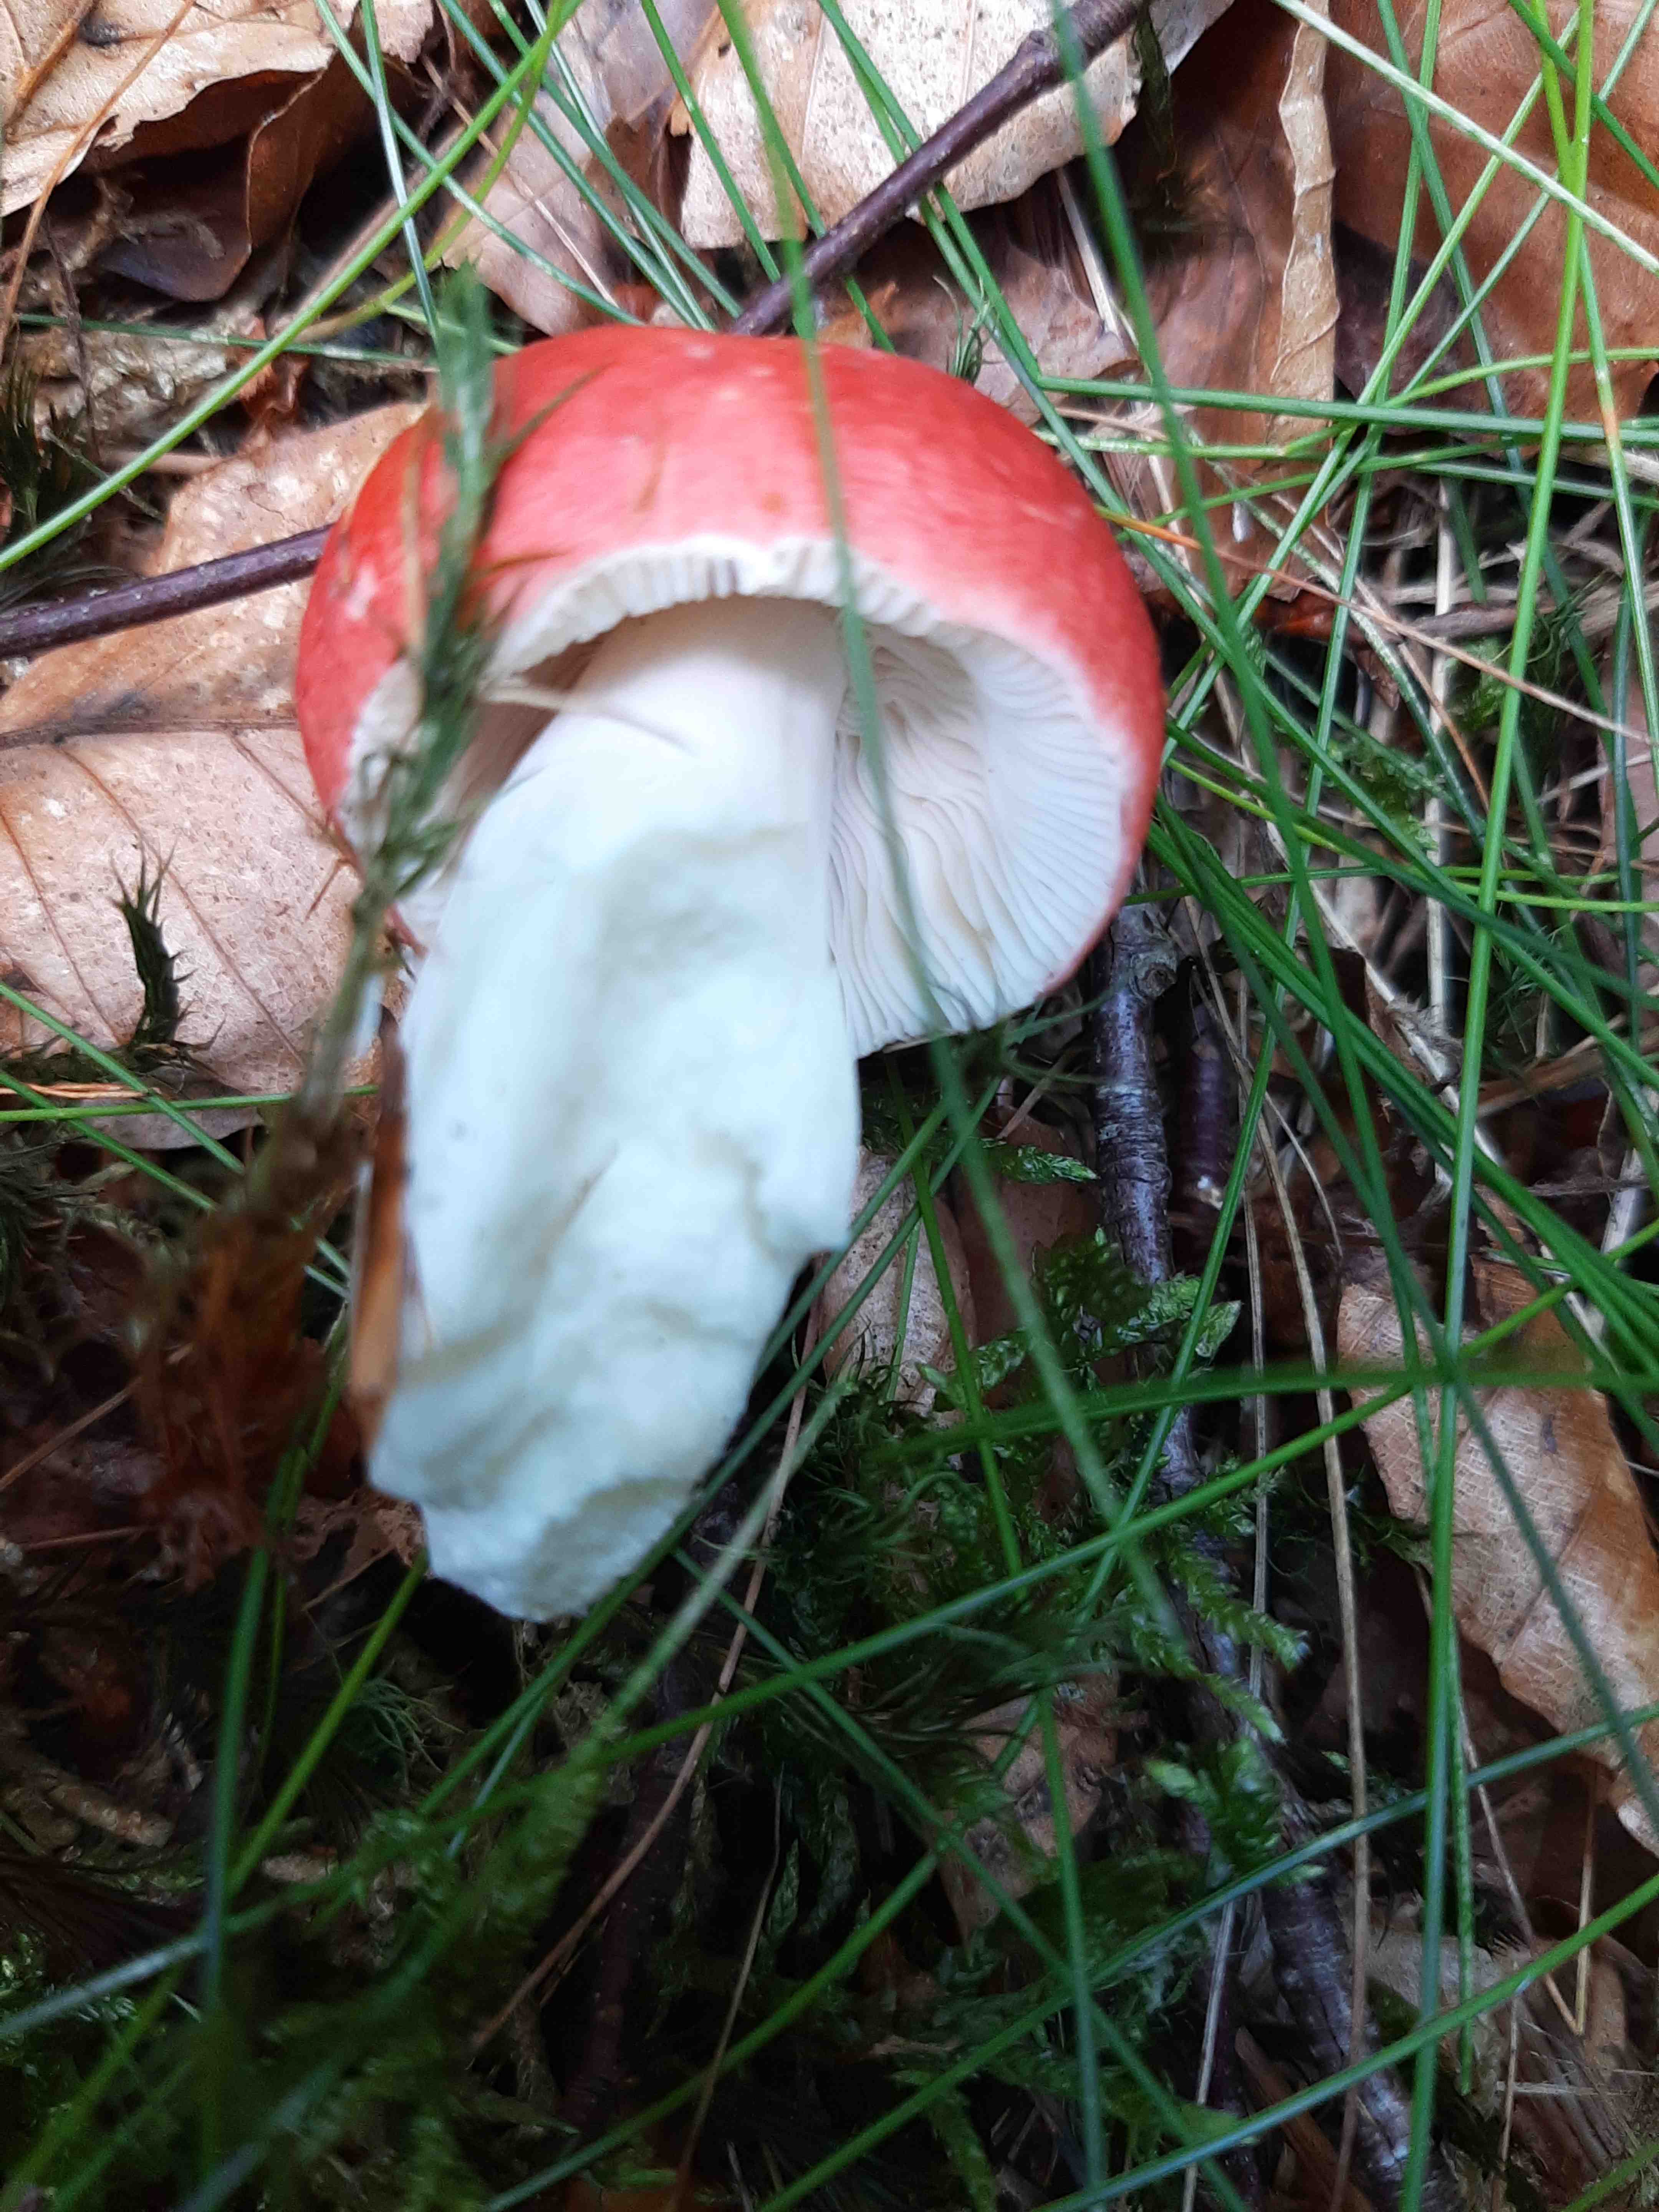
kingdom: Fungi
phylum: Basidiomycota
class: Agaricomycetes
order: Russulales
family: Russulaceae
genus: Russula
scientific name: Russula
